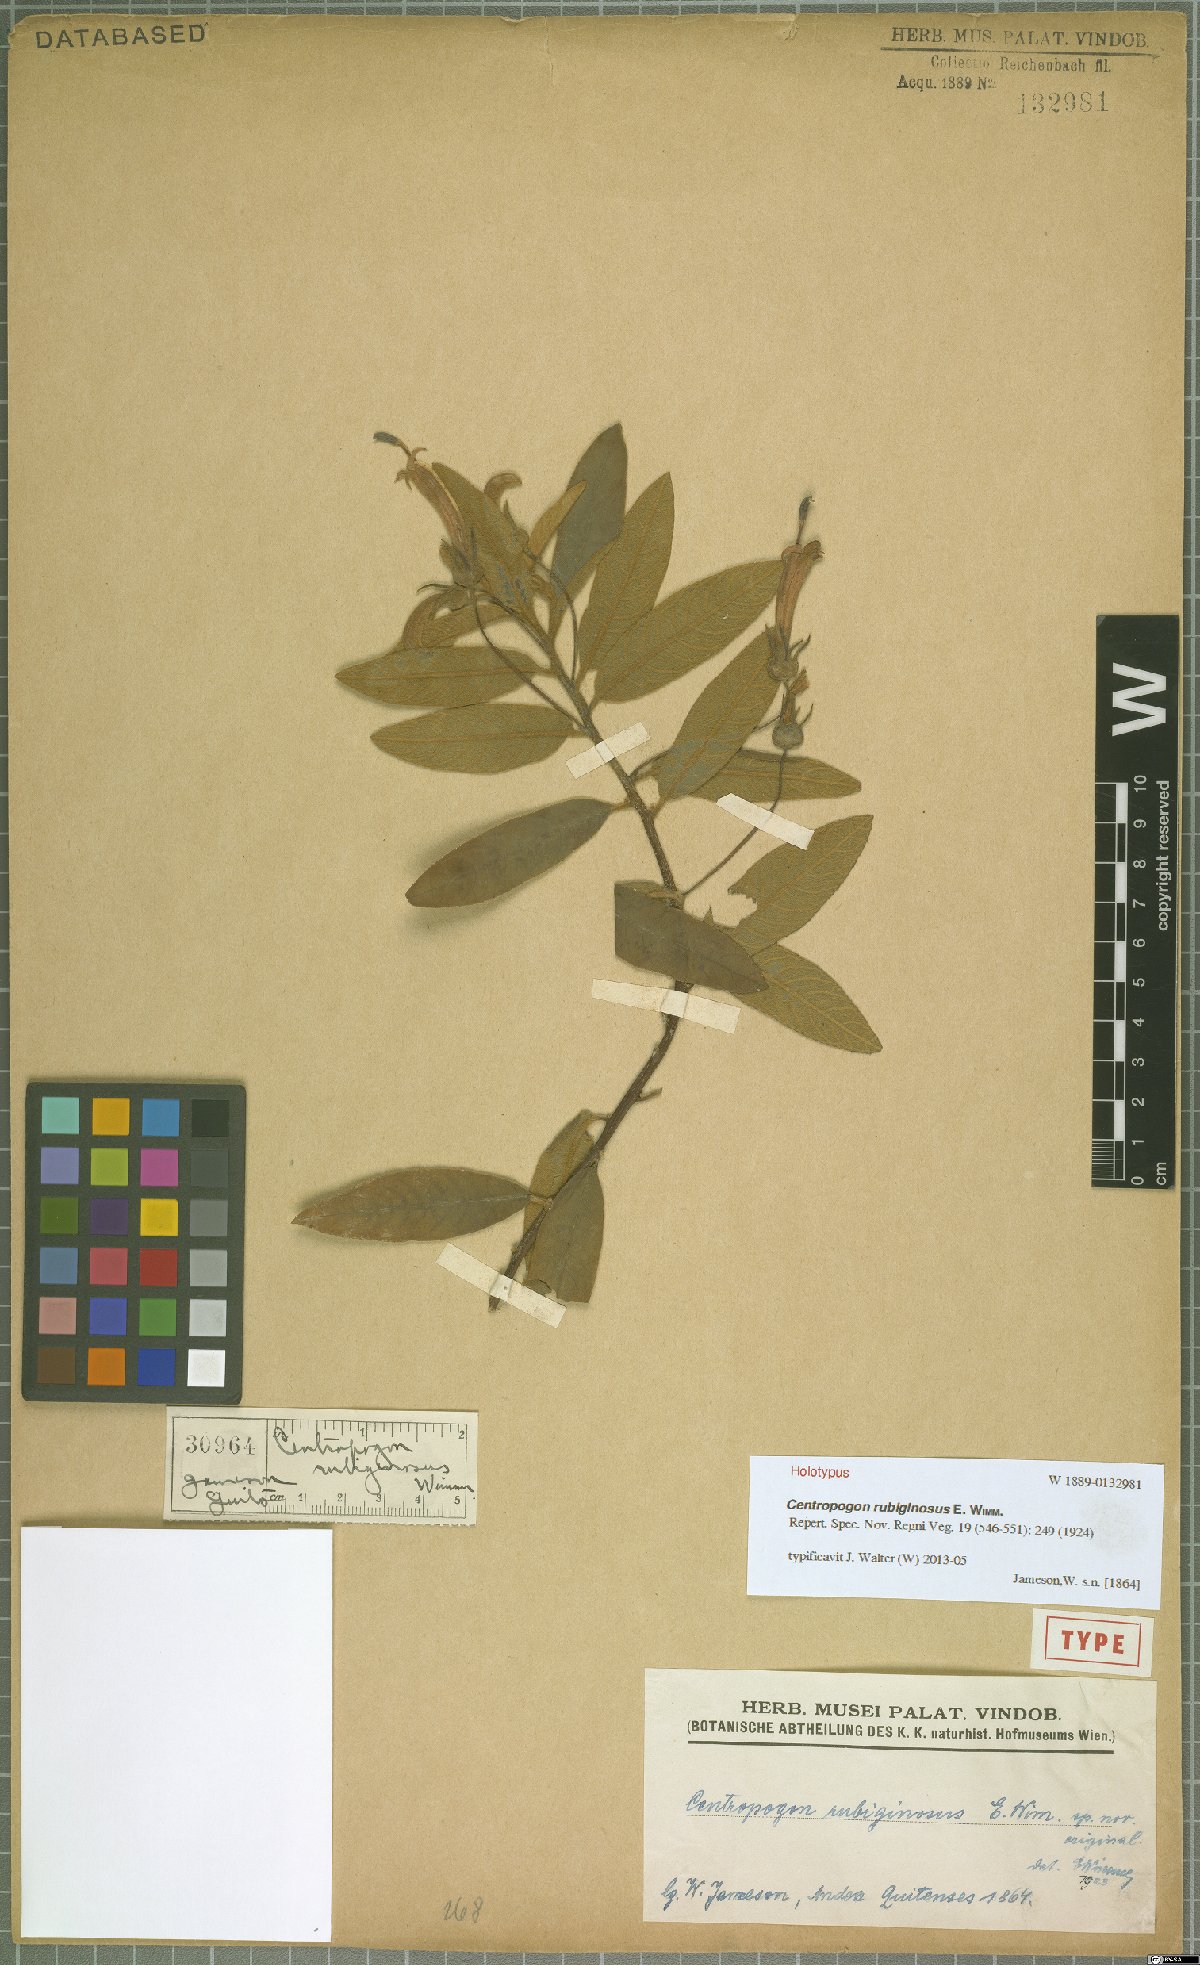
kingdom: Plantae
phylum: Tracheophyta
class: Magnoliopsida
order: Asterales
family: Campanulaceae
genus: Centropogon
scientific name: Centropogon rubiginosus
